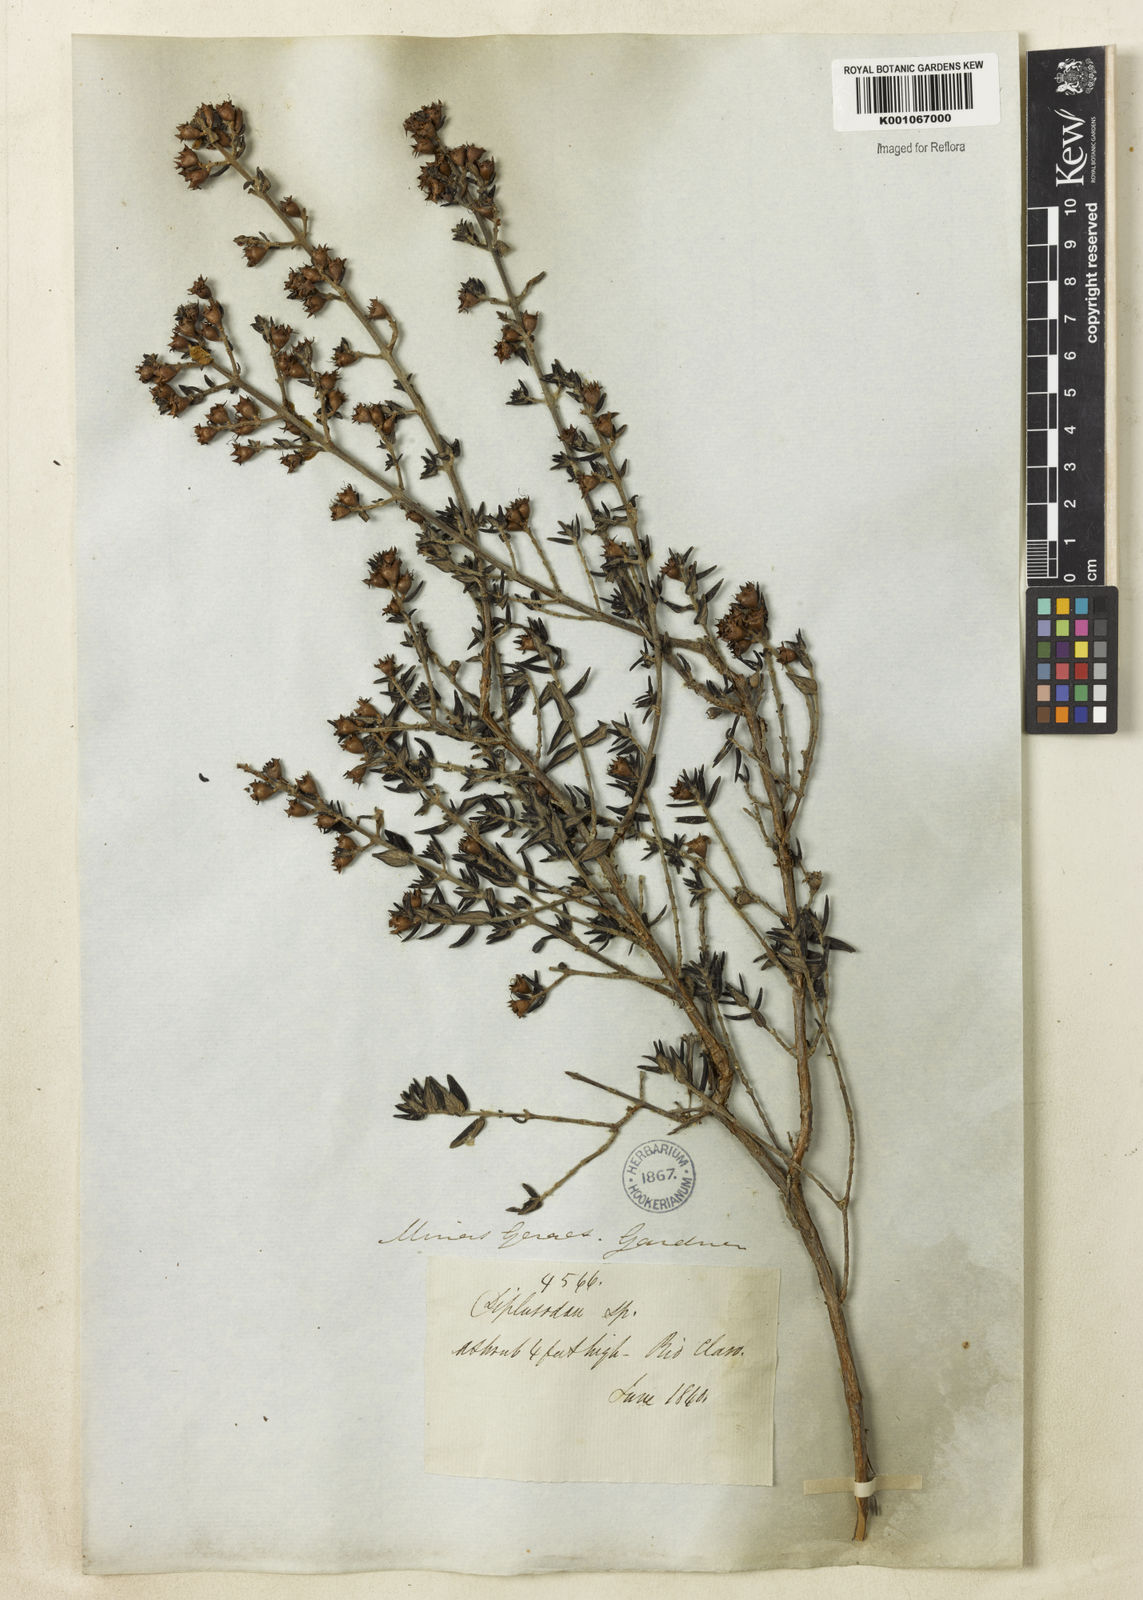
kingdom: Plantae
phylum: Tracheophyta
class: Magnoliopsida
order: Myrtales
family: Lythraceae
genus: Diplusodon
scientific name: Diplusodon helianthemifolius
